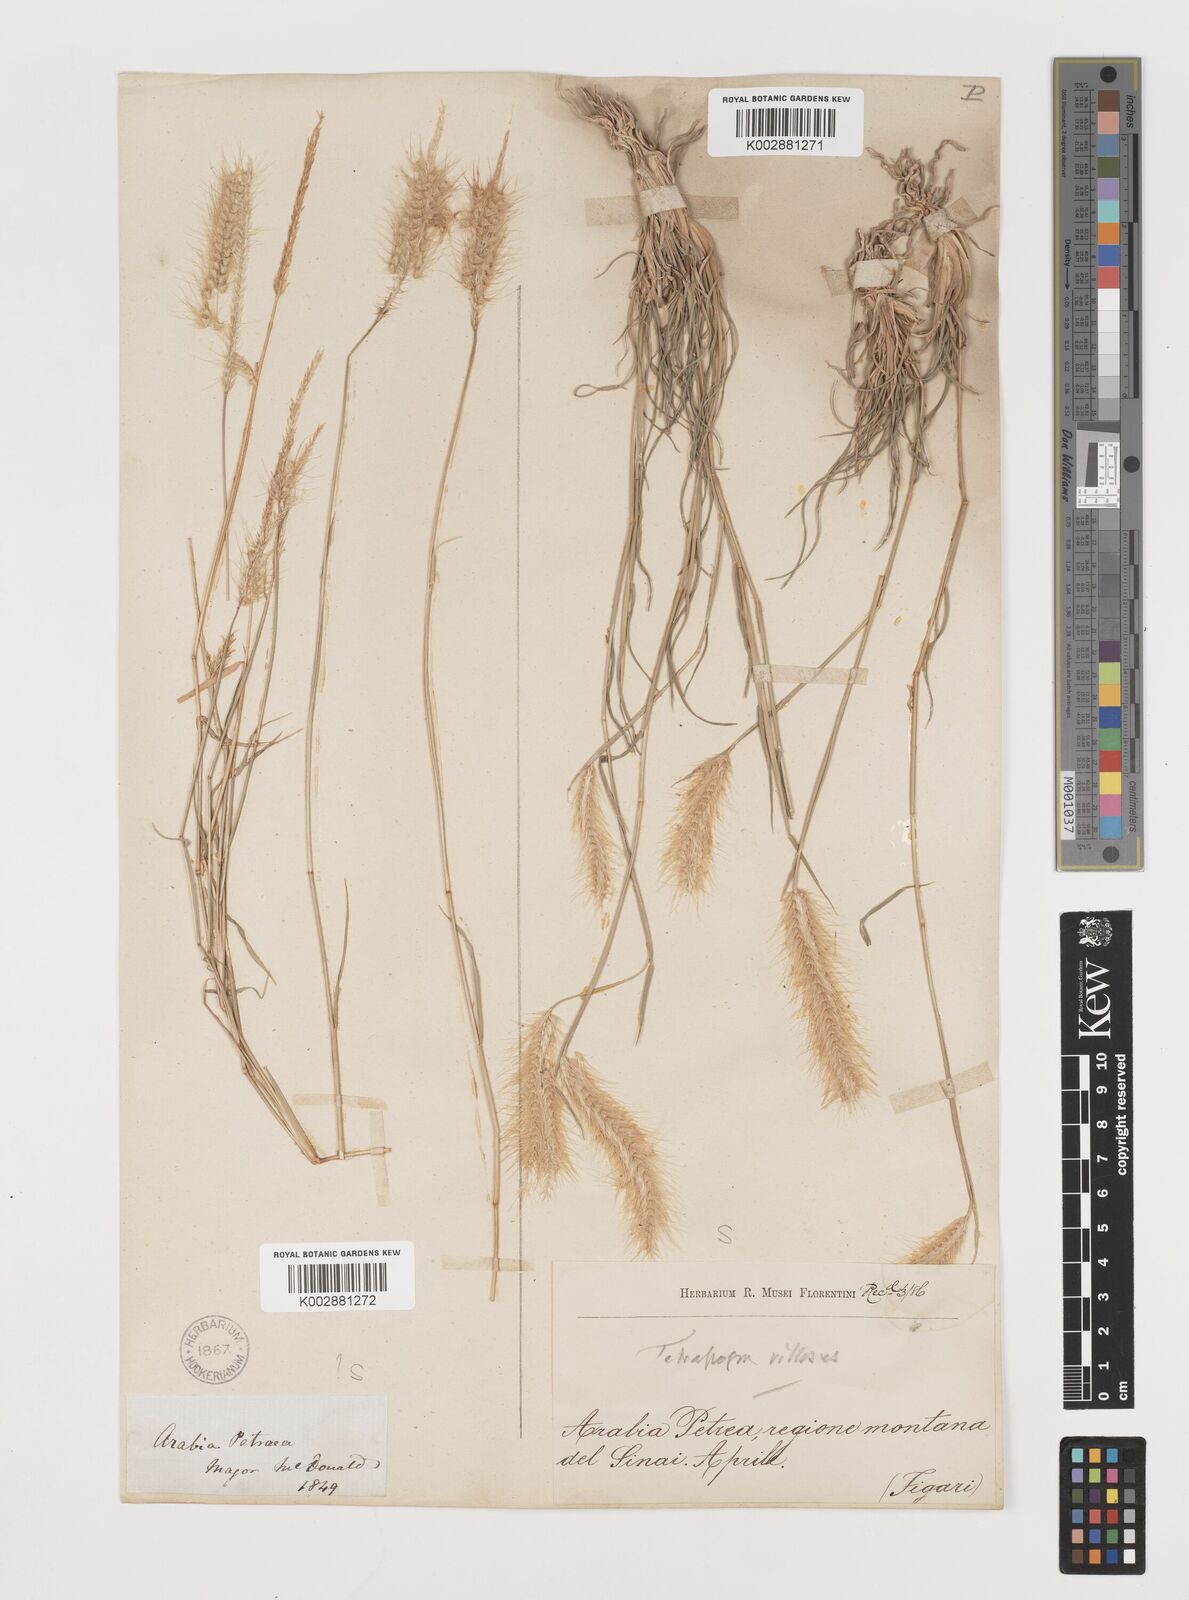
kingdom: Plantae
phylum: Tracheophyta
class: Liliopsida
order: Poales
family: Poaceae
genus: Tetrapogon
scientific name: Tetrapogon villosus
